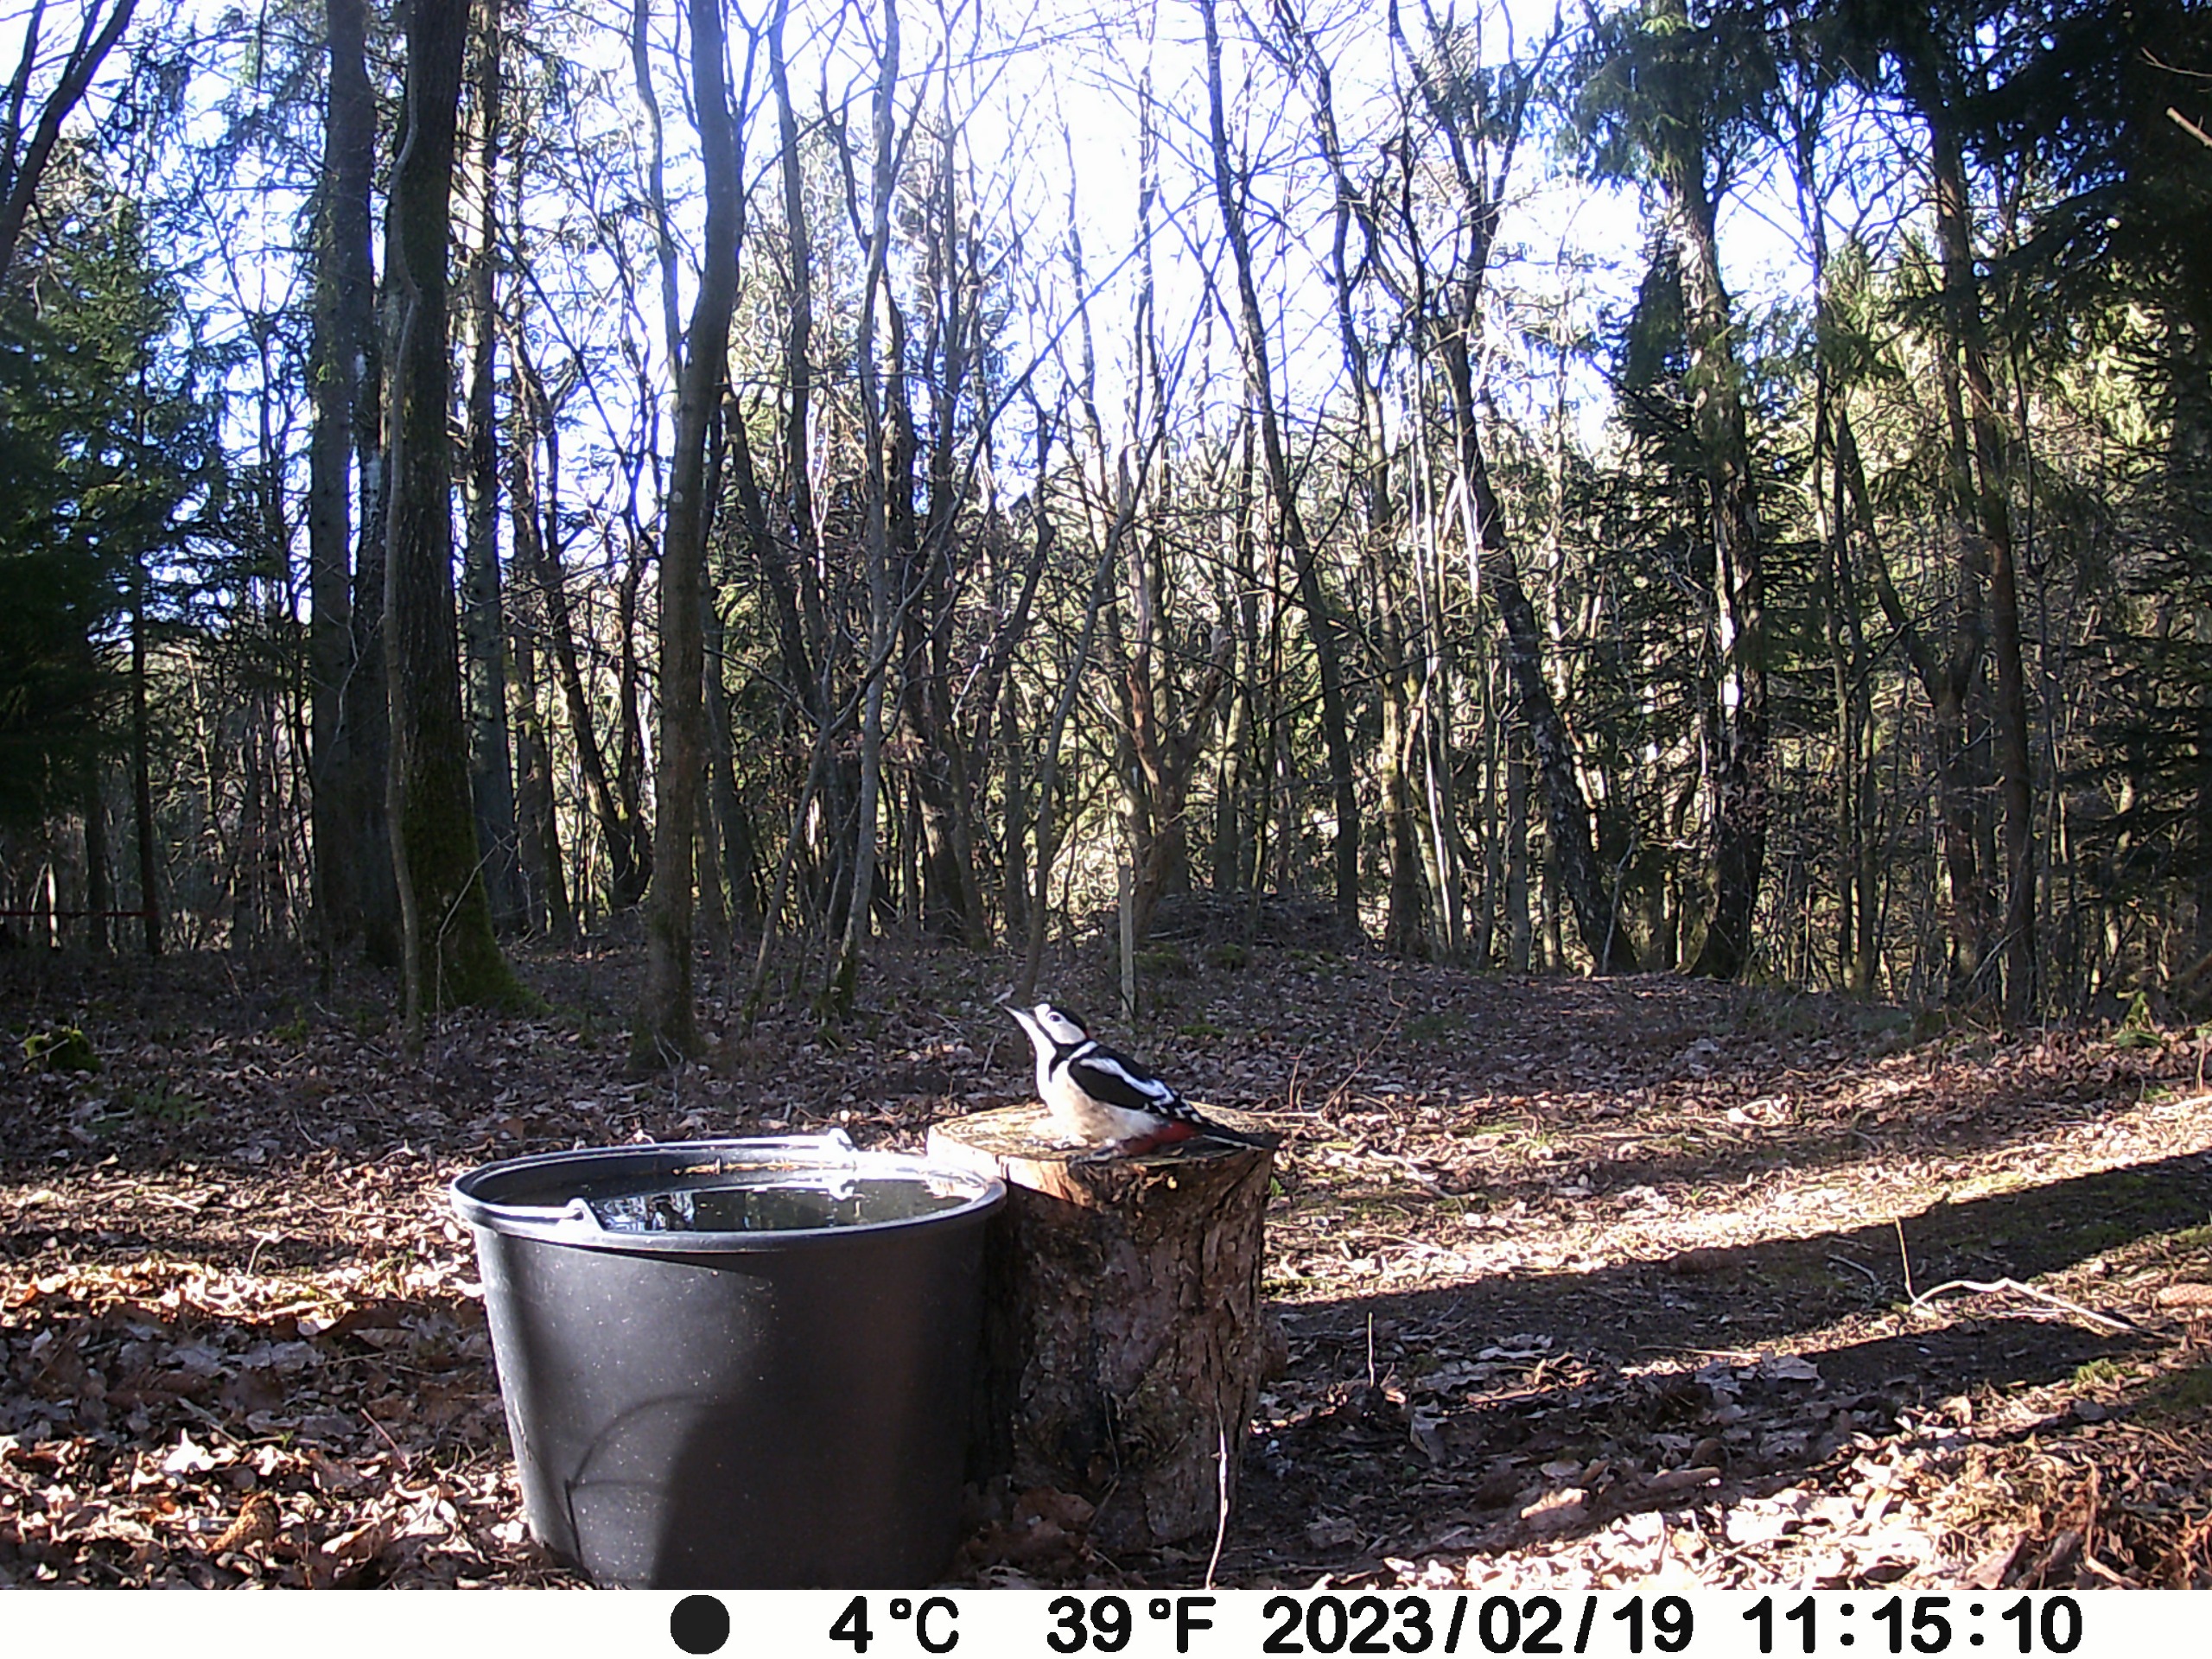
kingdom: Animalia
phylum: Chordata
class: Aves
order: Piciformes
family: Picidae
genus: Dendrocopos
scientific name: Dendrocopos major
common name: Stor flagspætte
